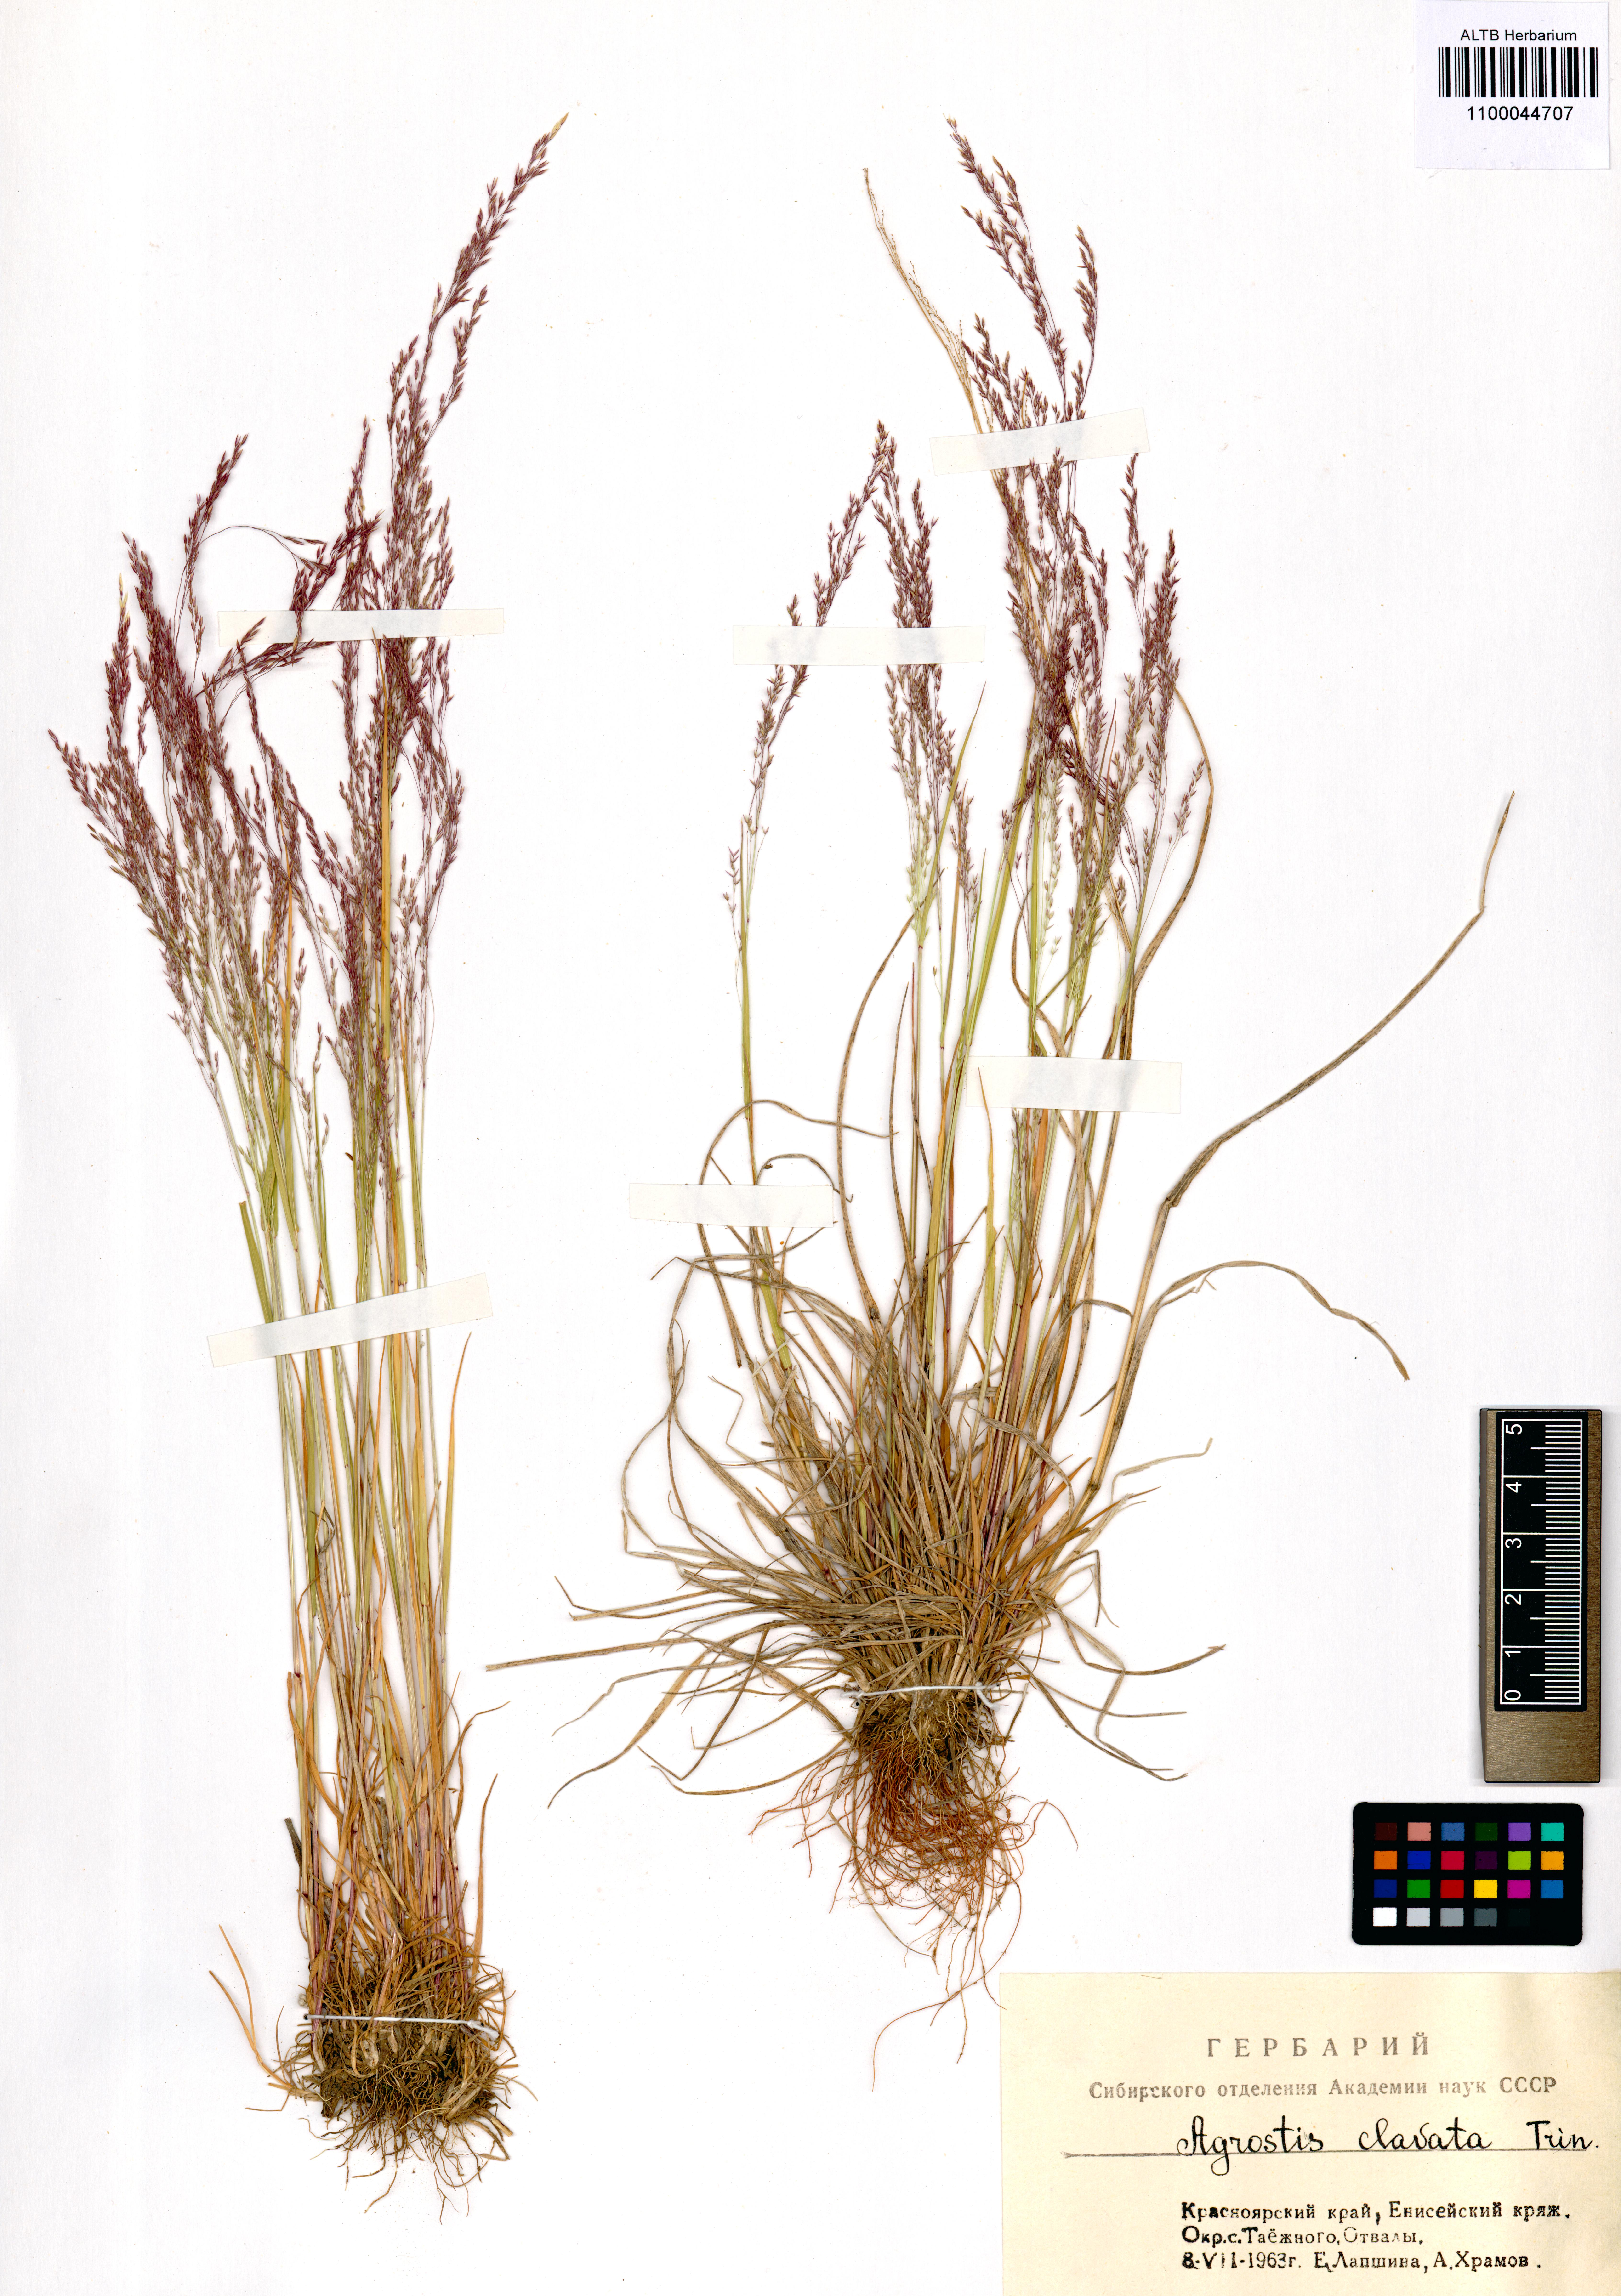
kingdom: Plantae
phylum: Tracheophyta
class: Liliopsida
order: Poales
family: Poaceae
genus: Agrostis
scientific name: Agrostis clavata
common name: Clavate bent
